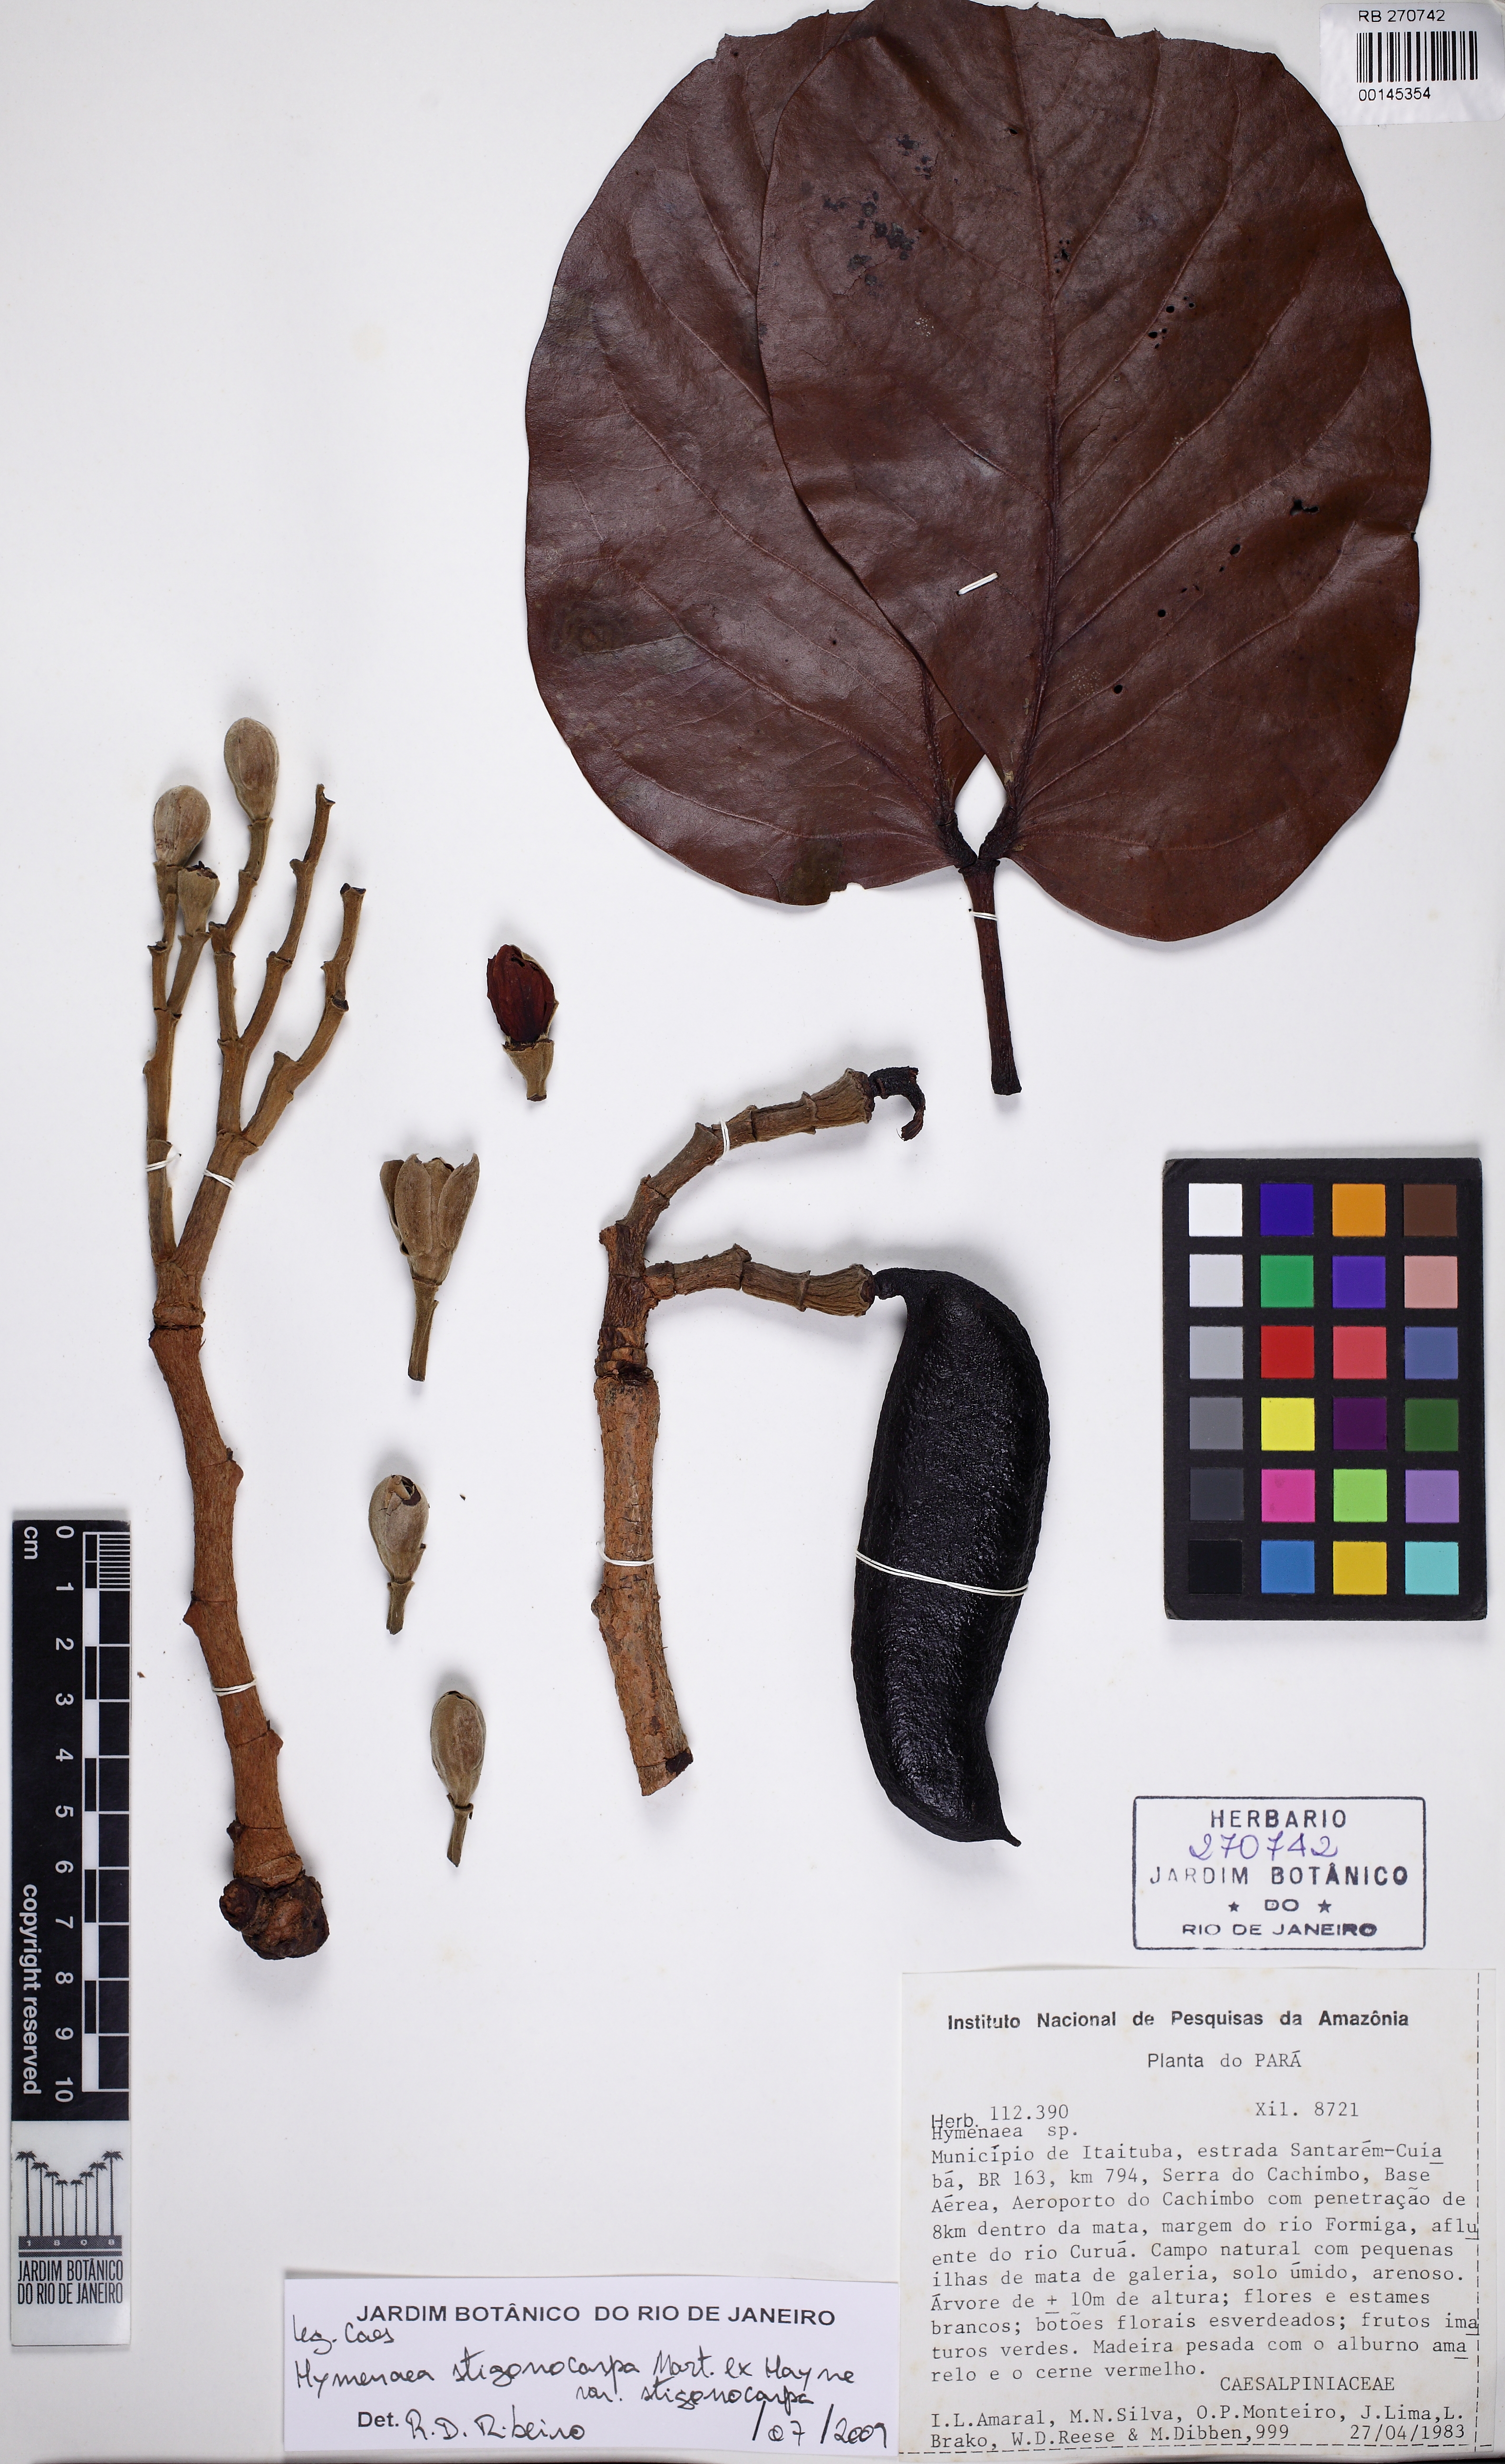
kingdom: Plantae
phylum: Tracheophyta
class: Magnoliopsida
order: Fabales
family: Fabaceae
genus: Hymenaea
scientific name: Hymenaea stigonocarpa
